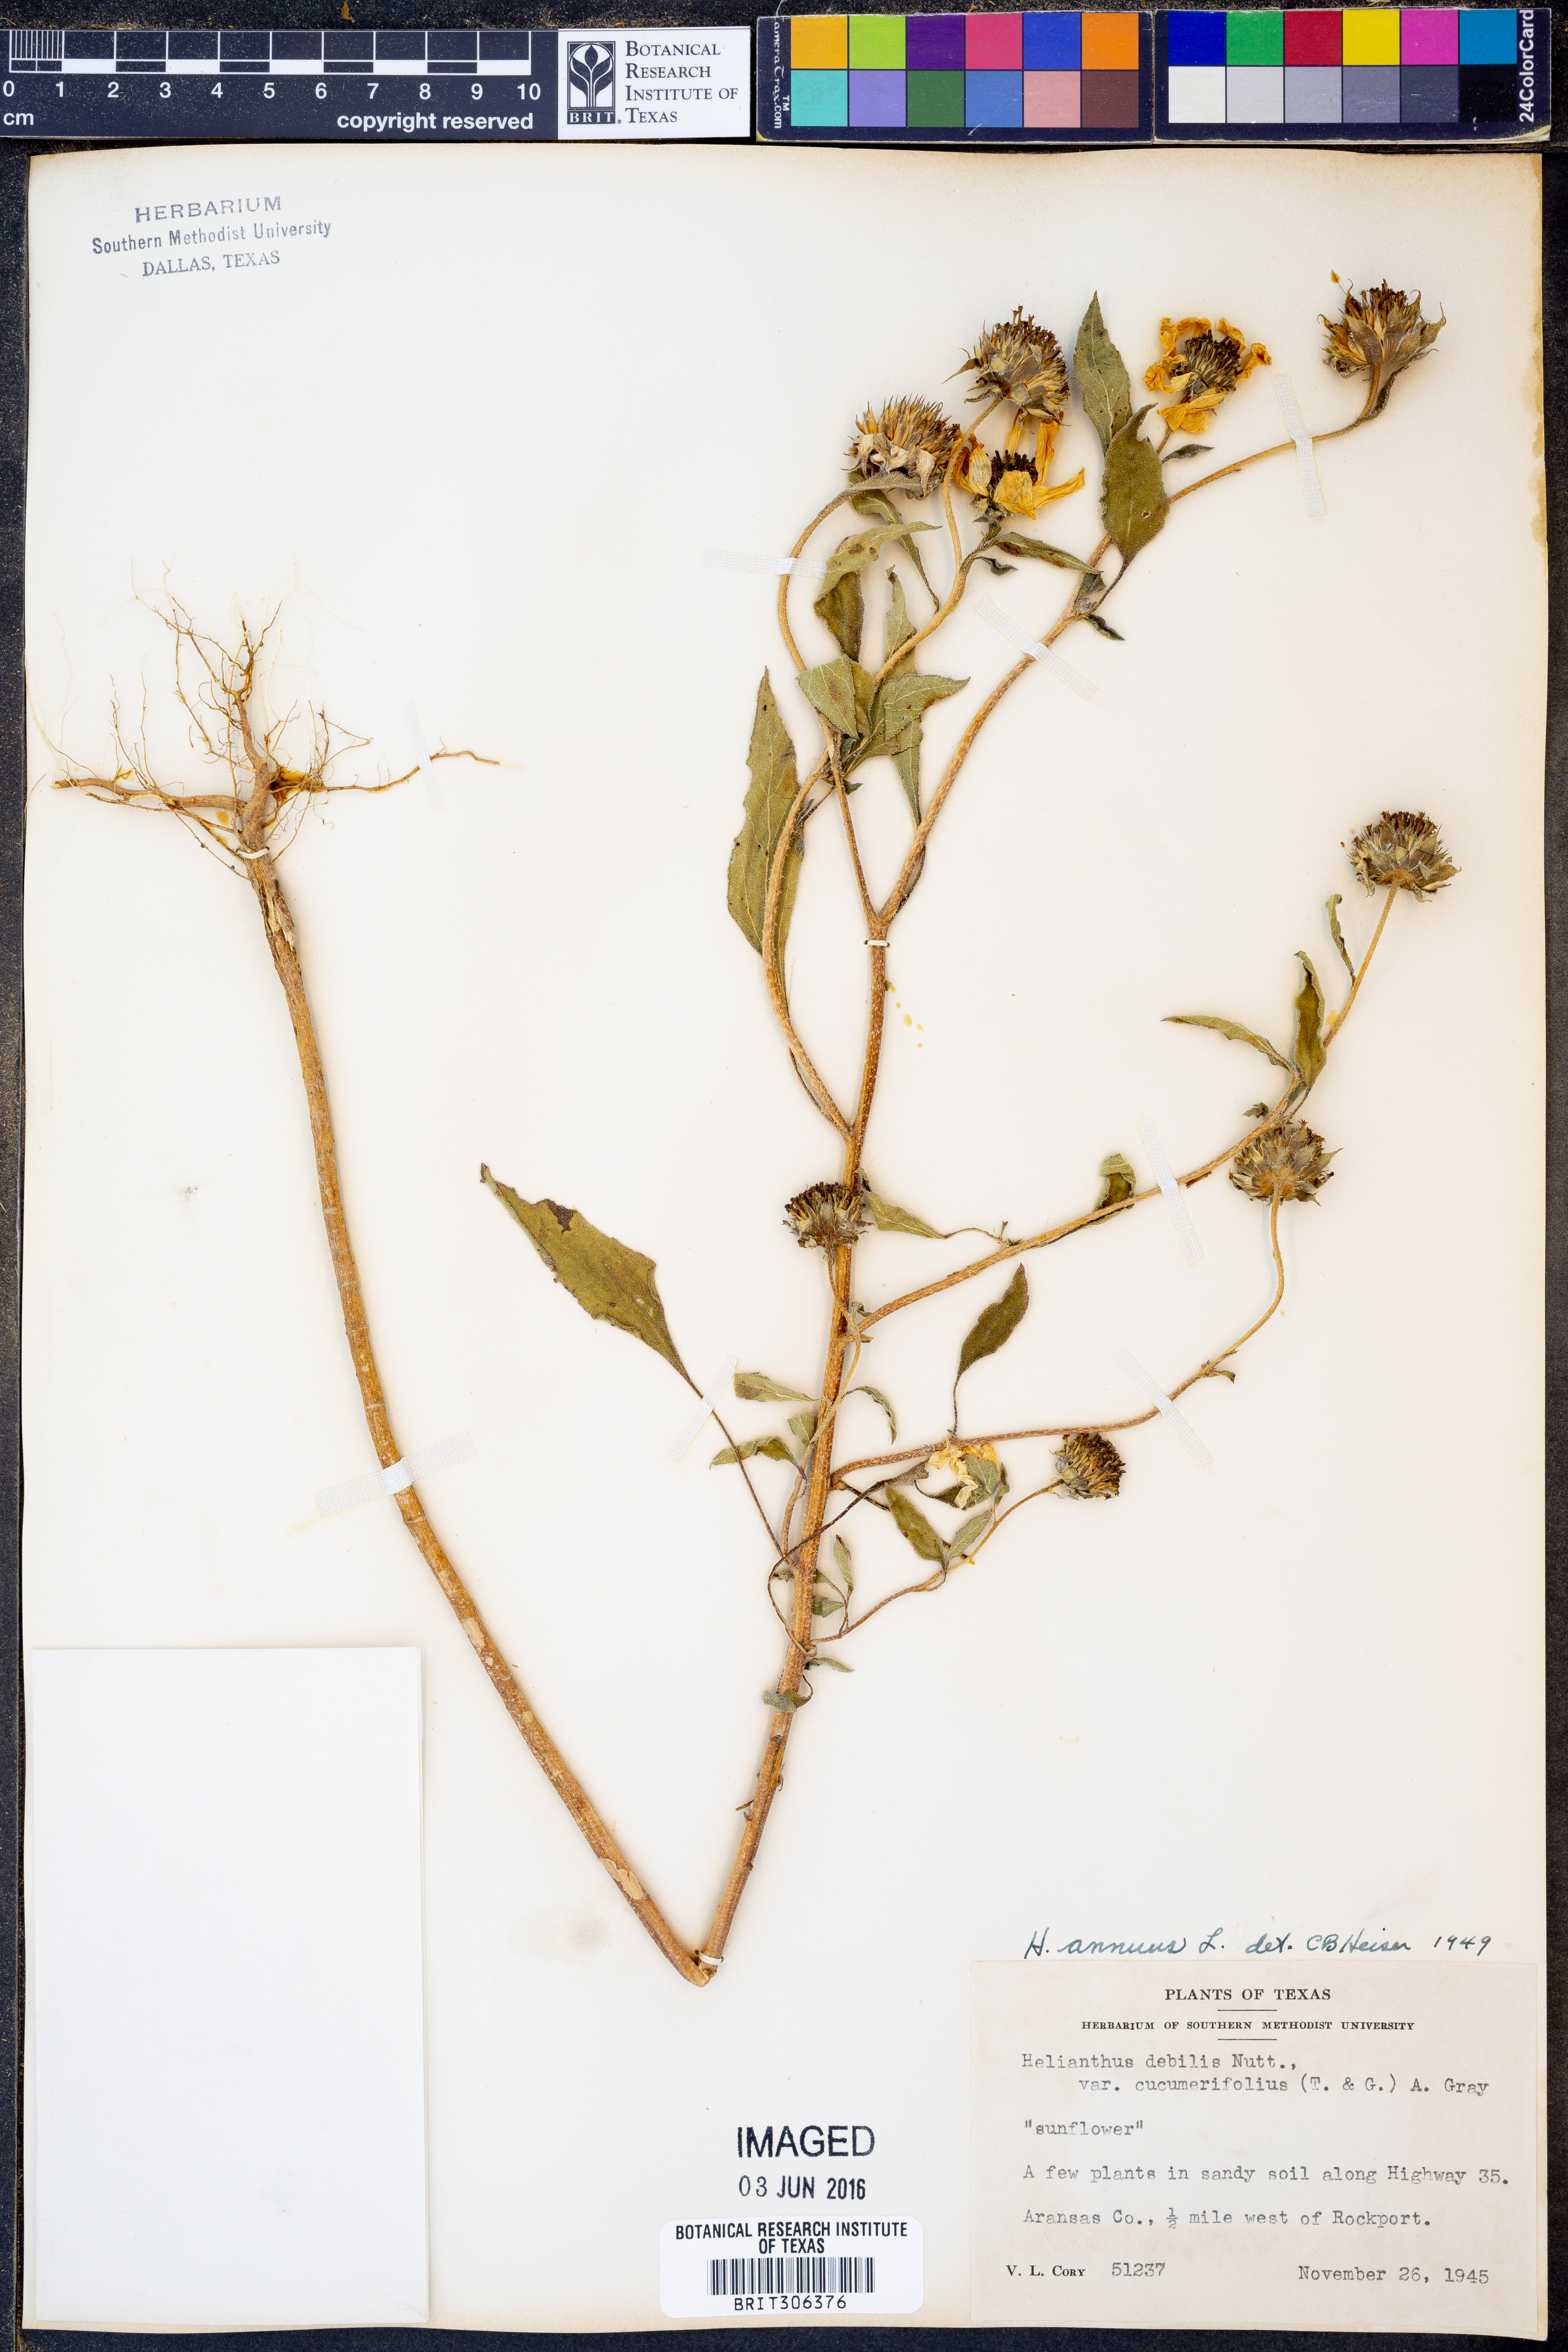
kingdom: Plantae
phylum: Tracheophyta
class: Magnoliopsida
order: Asterales
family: Asteraceae
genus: Helianthus
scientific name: Helianthus annuus
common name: Sunflower
